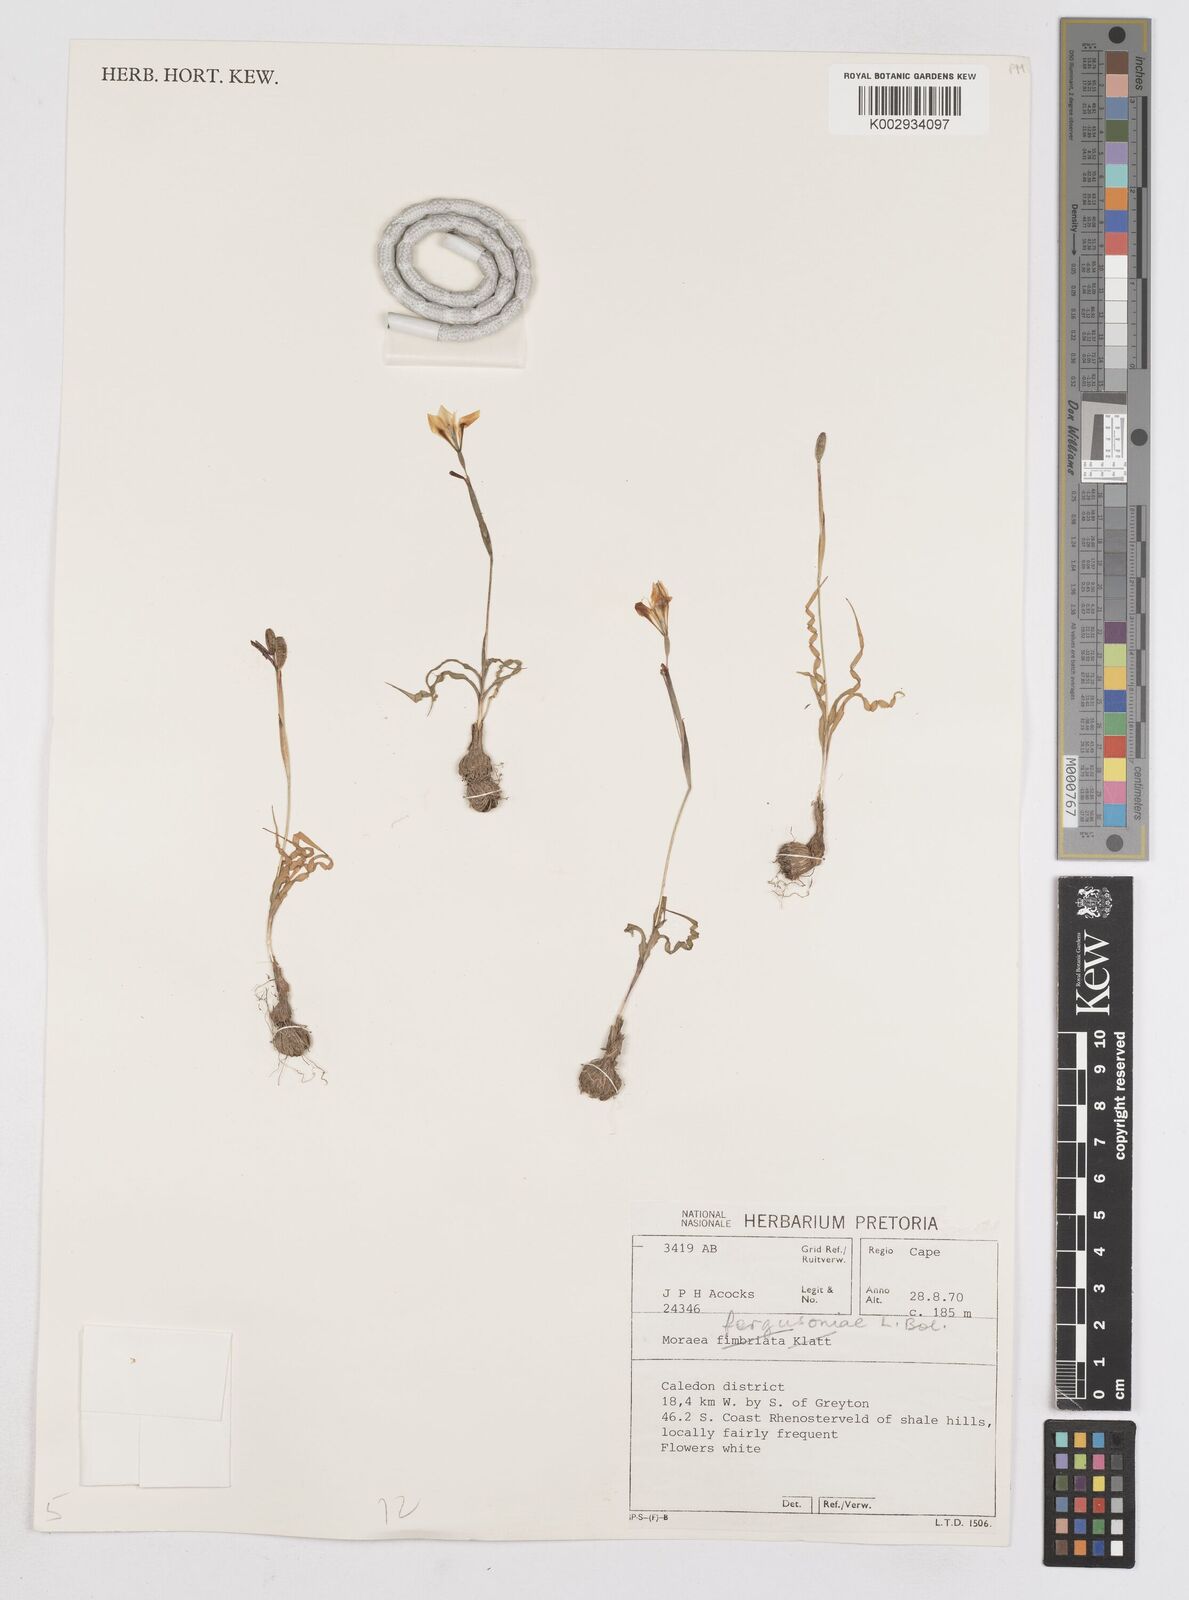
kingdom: Plantae
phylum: Tracheophyta
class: Liliopsida
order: Asparagales
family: Iridaceae
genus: Moraea
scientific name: Moraea fergusoniae
